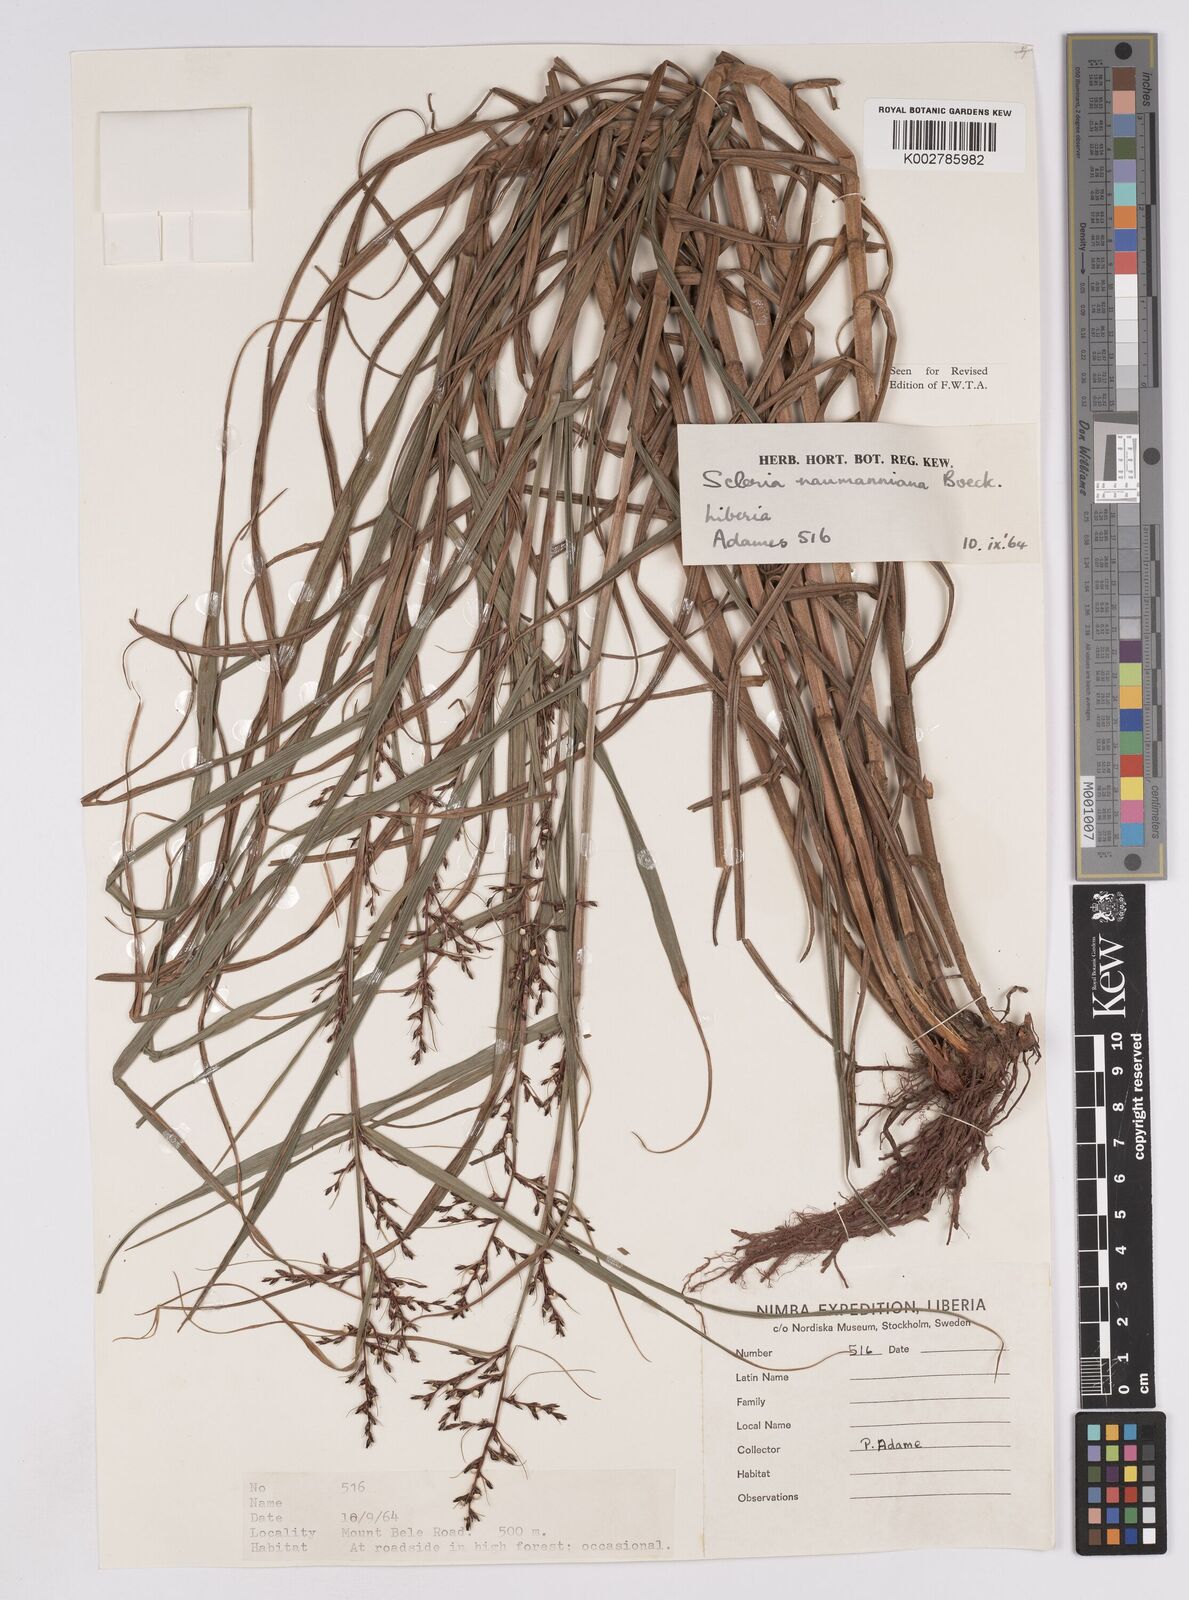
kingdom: Plantae
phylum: Tracheophyta
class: Liliopsida
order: Poales
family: Cyperaceae
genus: Scleria
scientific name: Scleria naumanniana
